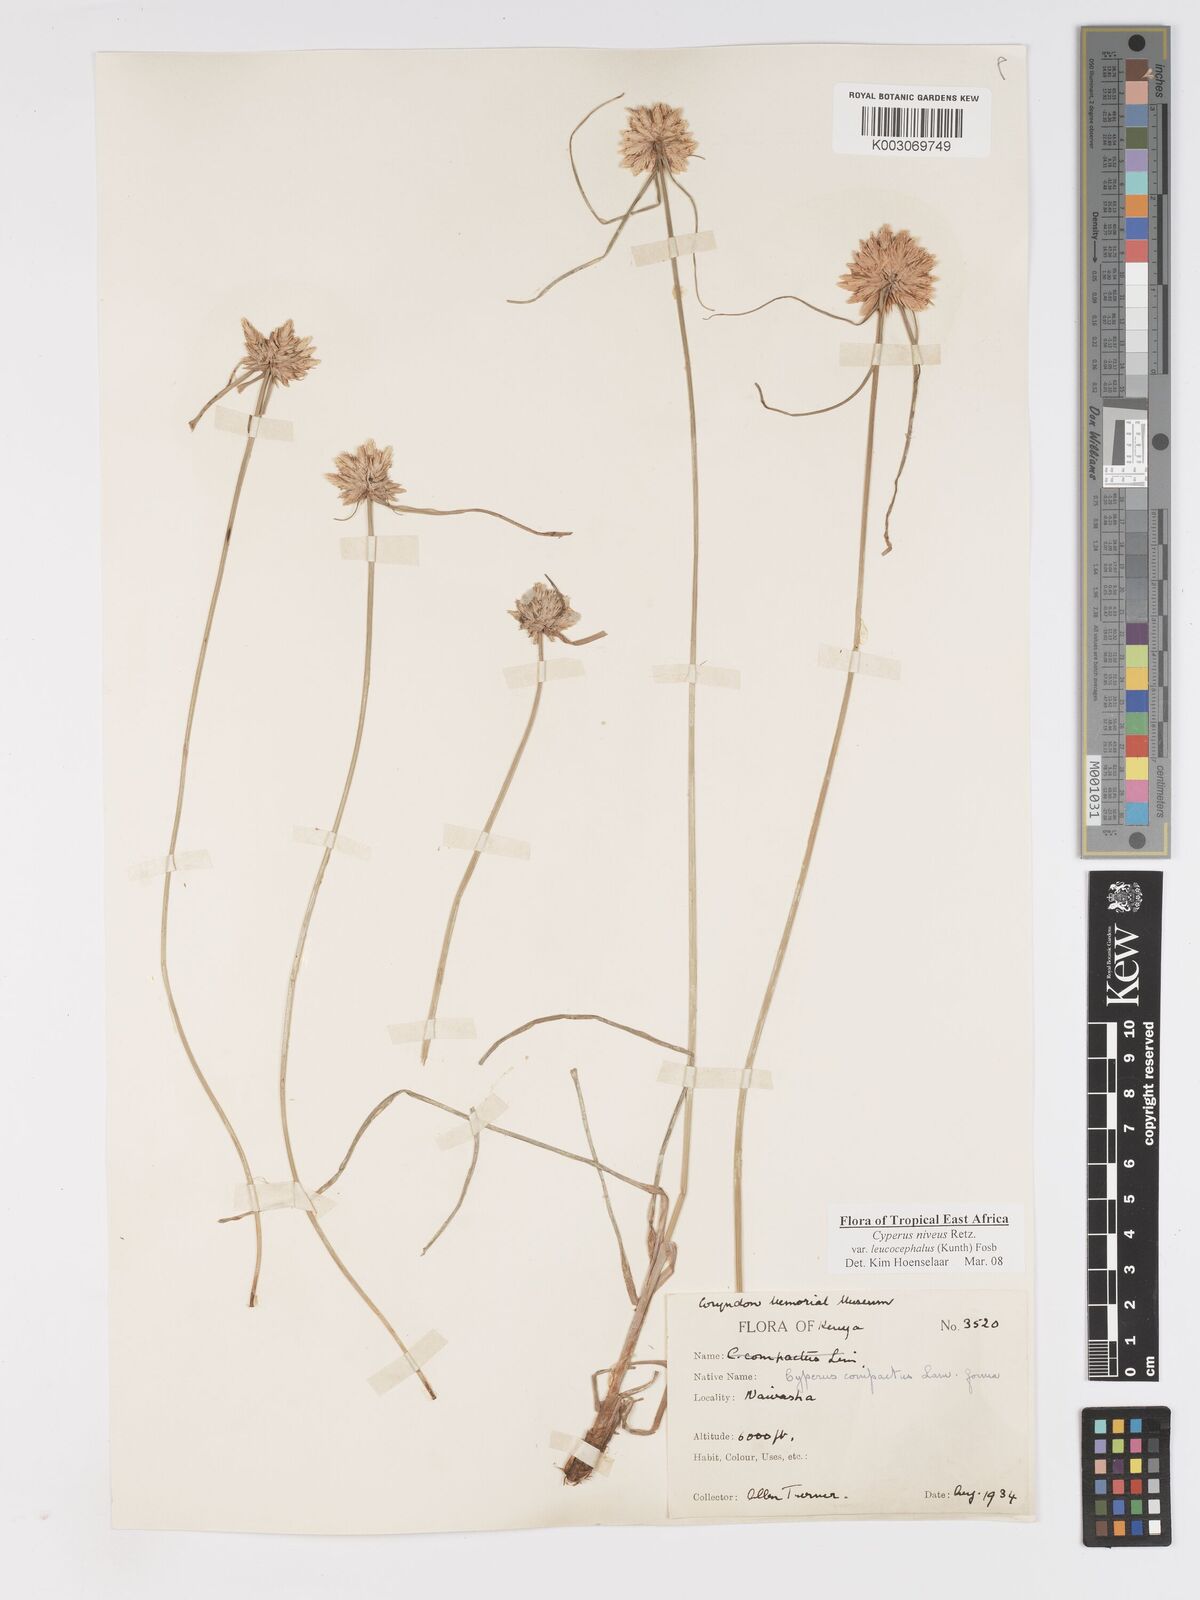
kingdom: Plantae
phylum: Tracheophyta
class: Liliopsida
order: Poales
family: Cyperaceae
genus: Cyperus
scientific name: Cyperus niveus
